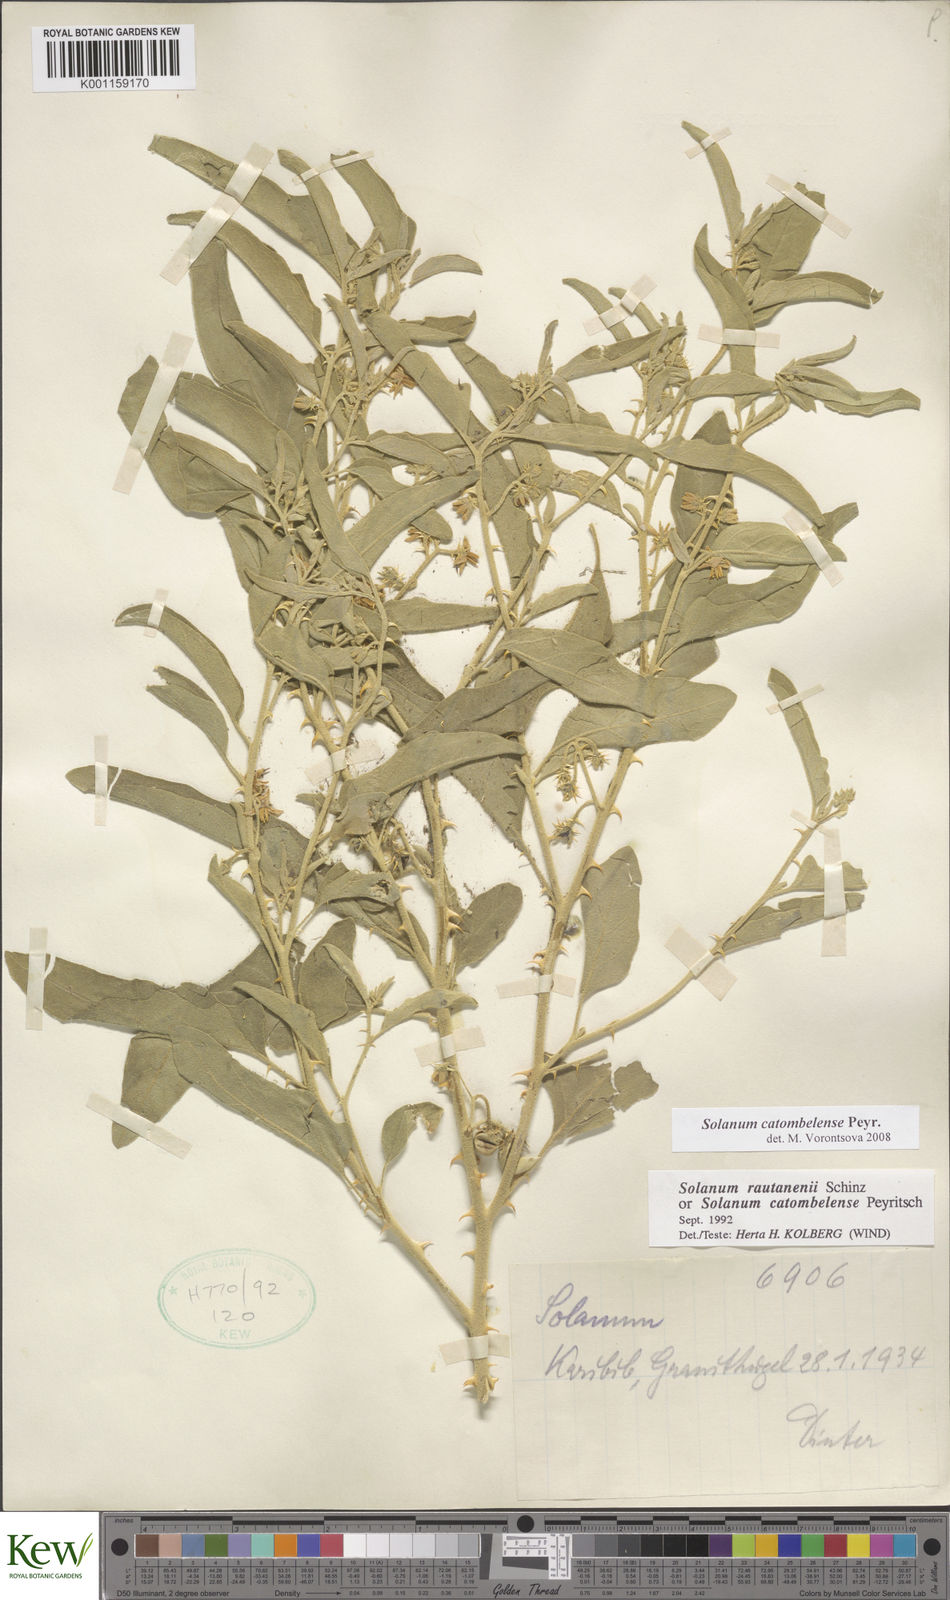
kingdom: Plantae
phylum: Tracheophyta
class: Magnoliopsida
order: Solanales
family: Solanaceae
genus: Solanum
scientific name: Solanum catombelense
